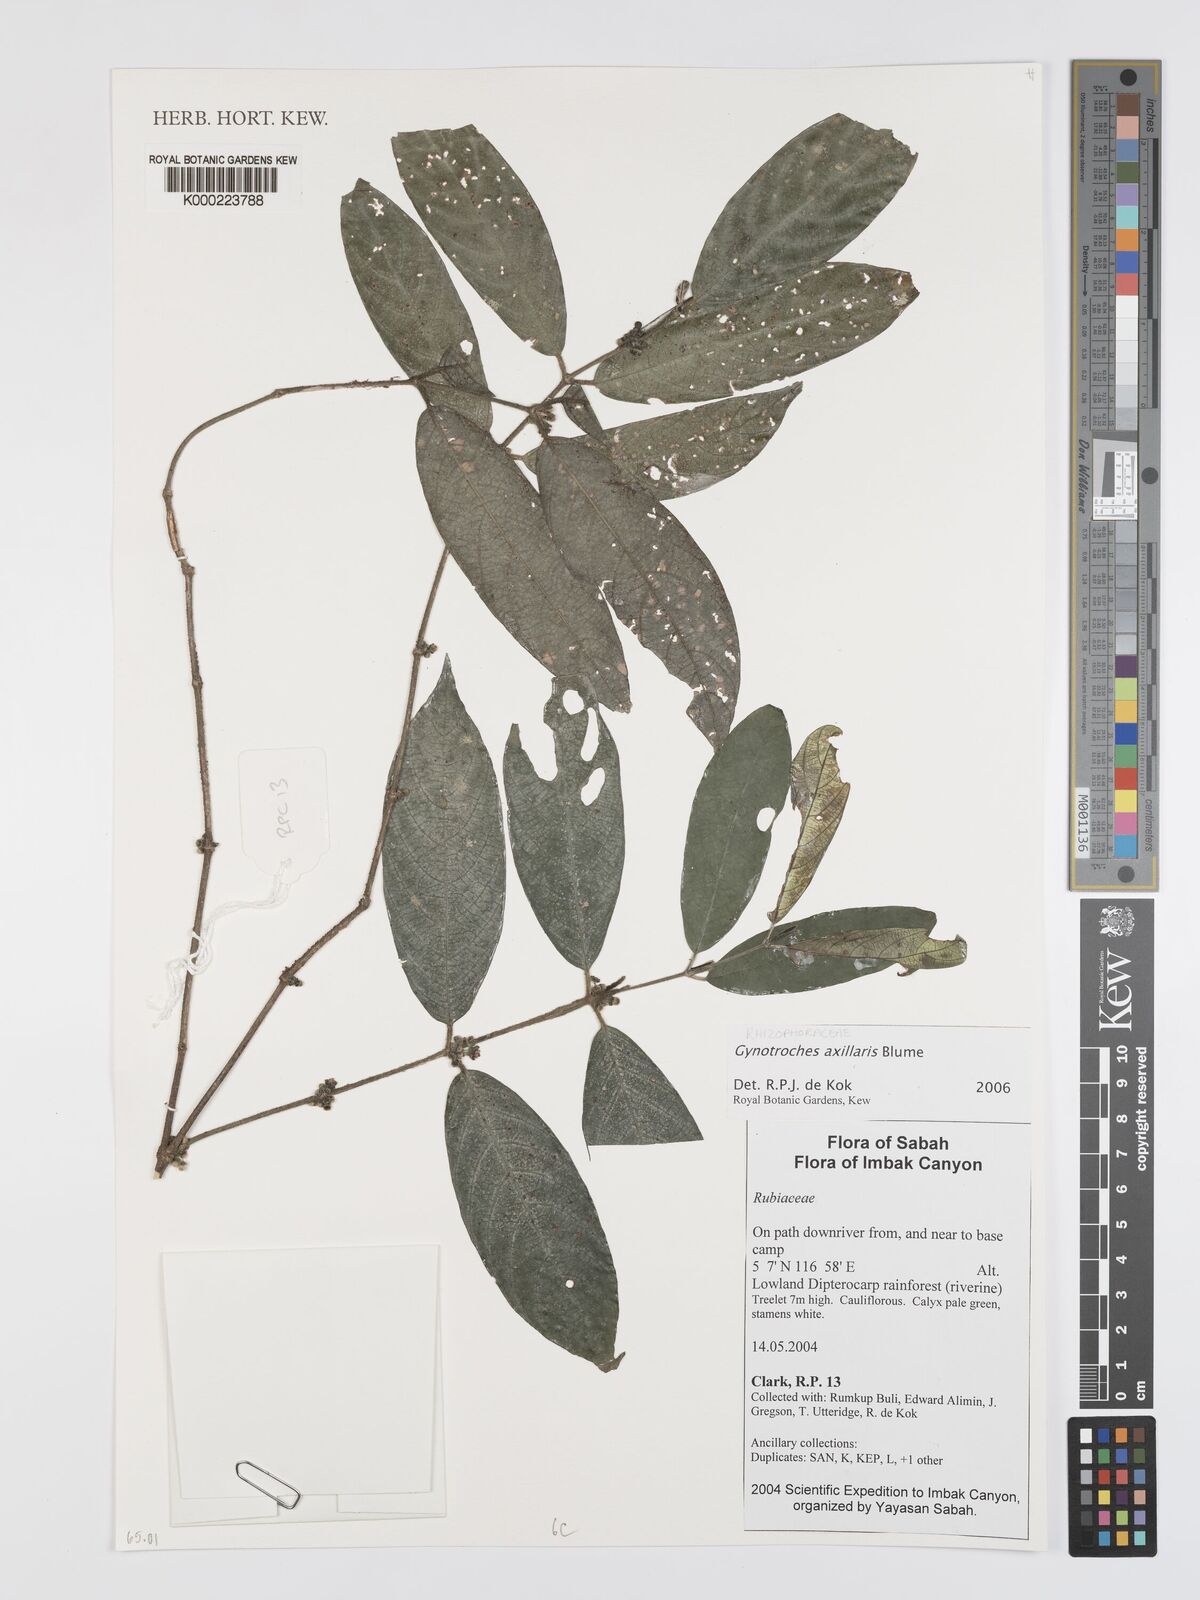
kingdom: Plantae
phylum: Tracheophyta
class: Magnoliopsida
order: Malpighiales
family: Rhizophoraceae
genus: Gynotroches
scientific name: Gynotroches axillaris
